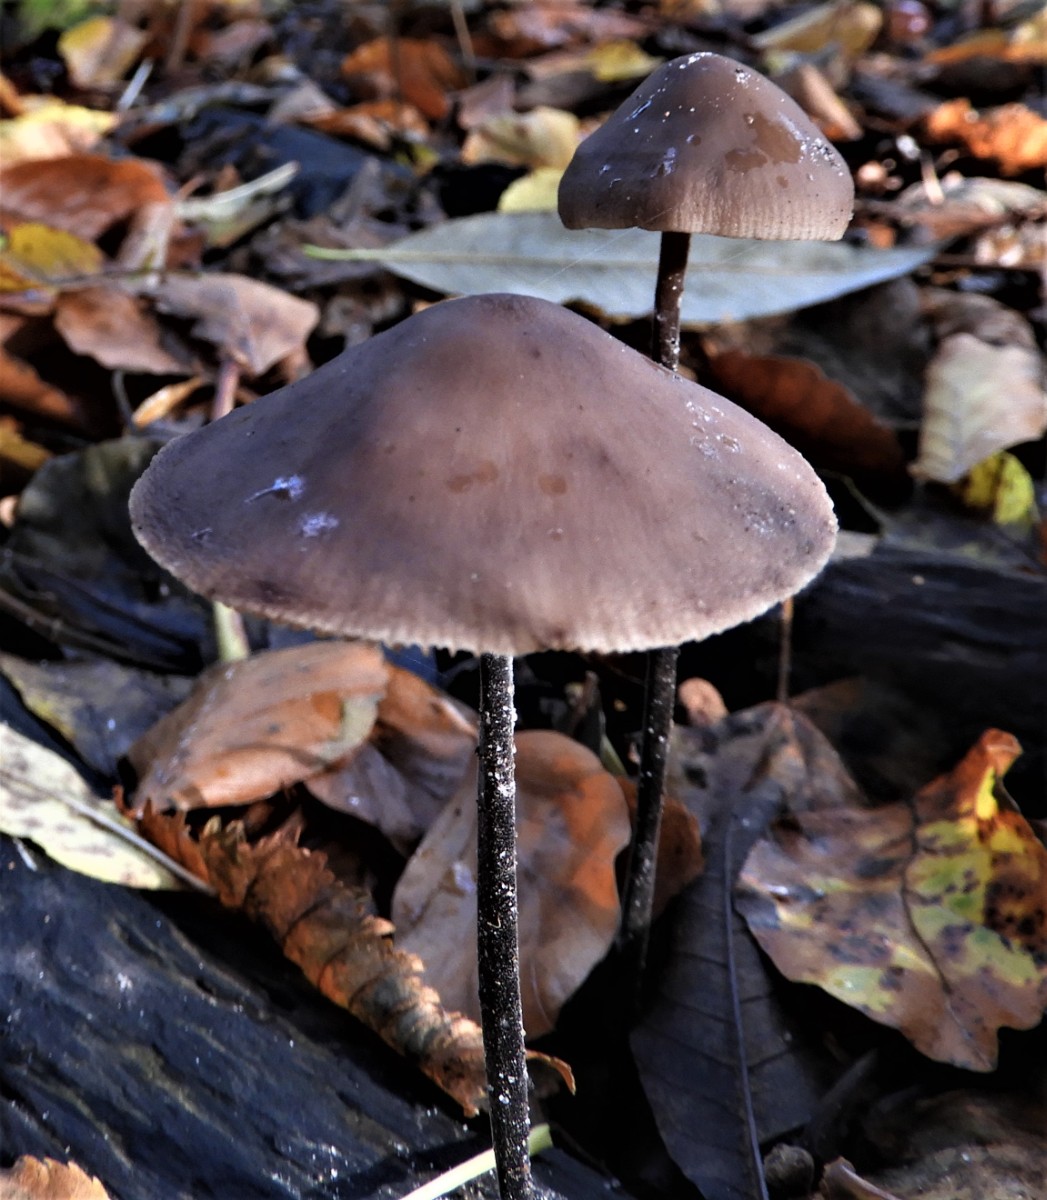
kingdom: Fungi
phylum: Basidiomycota
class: Agaricomycetes
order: Agaricales
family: Omphalotaceae
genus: Mycetinis
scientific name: Mycetinis alliaceus
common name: stor løghat
